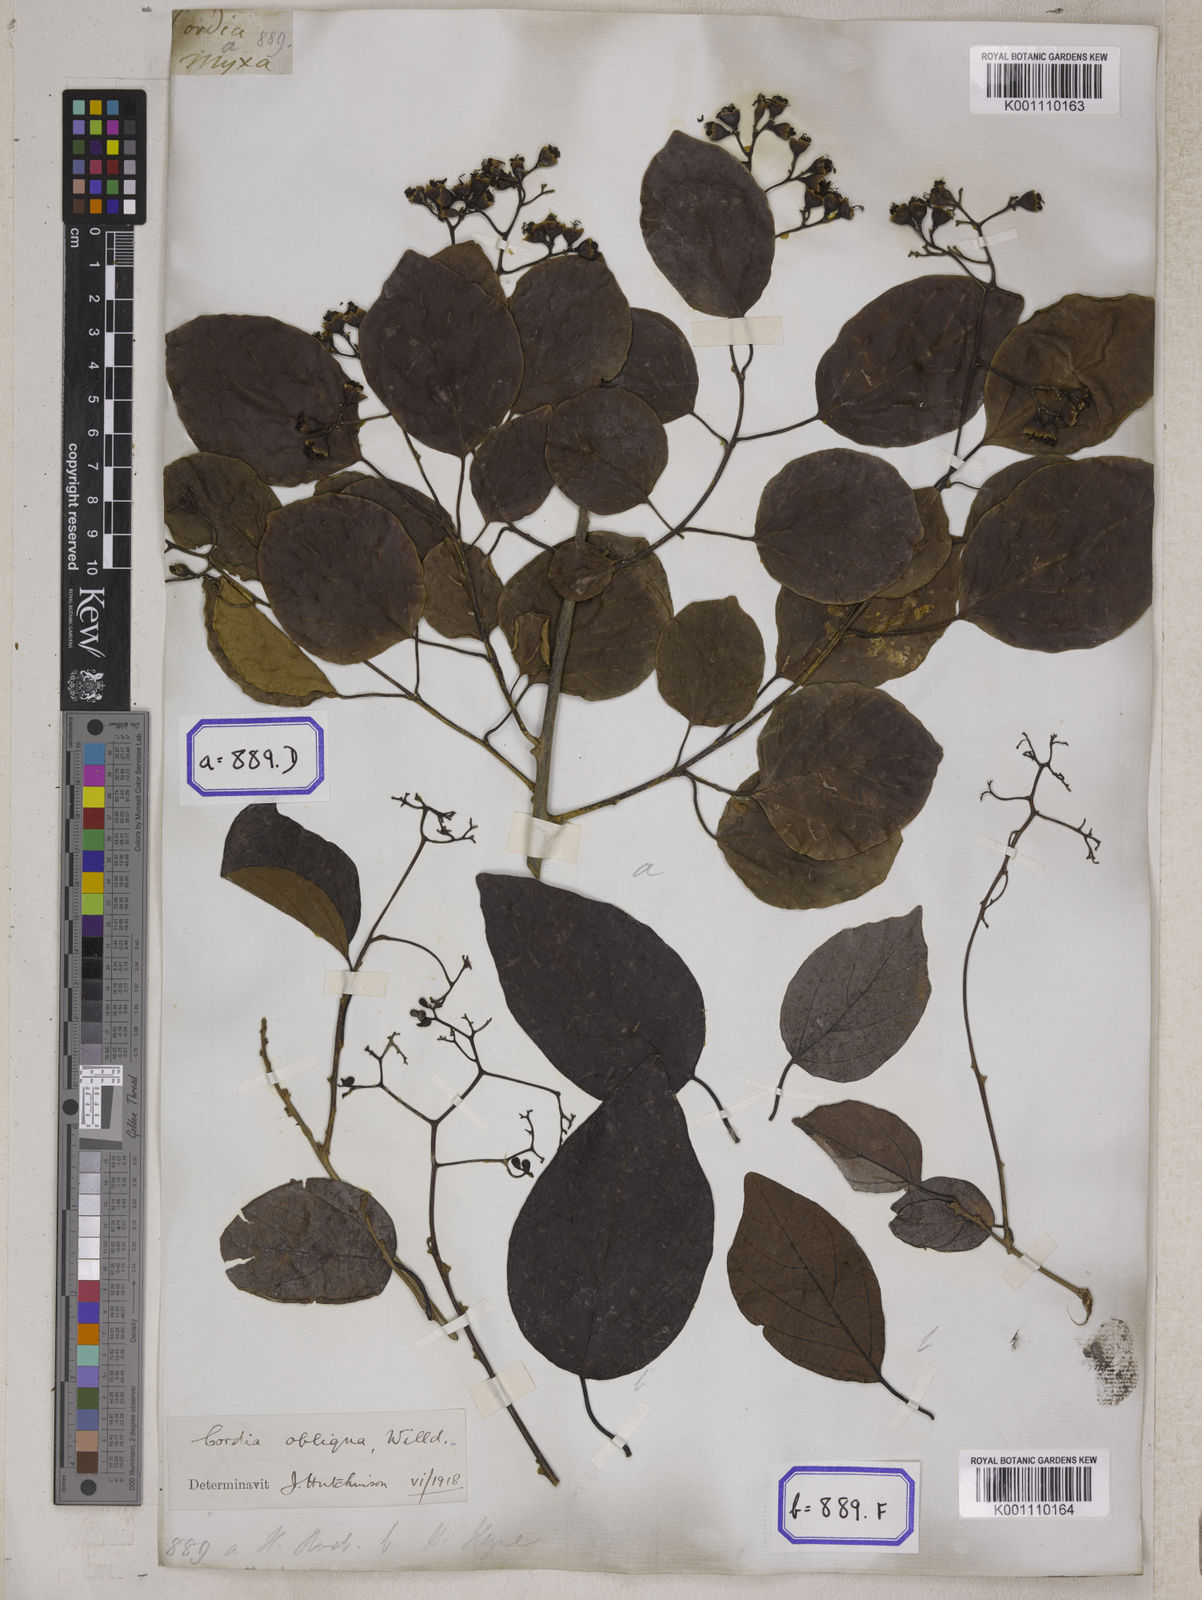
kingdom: Plantae
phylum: Tracheophyta
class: Magnoliopsida
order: Boraginales
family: Cordiaceae
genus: Cordia
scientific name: Cordia myxa
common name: Assyrian plum
